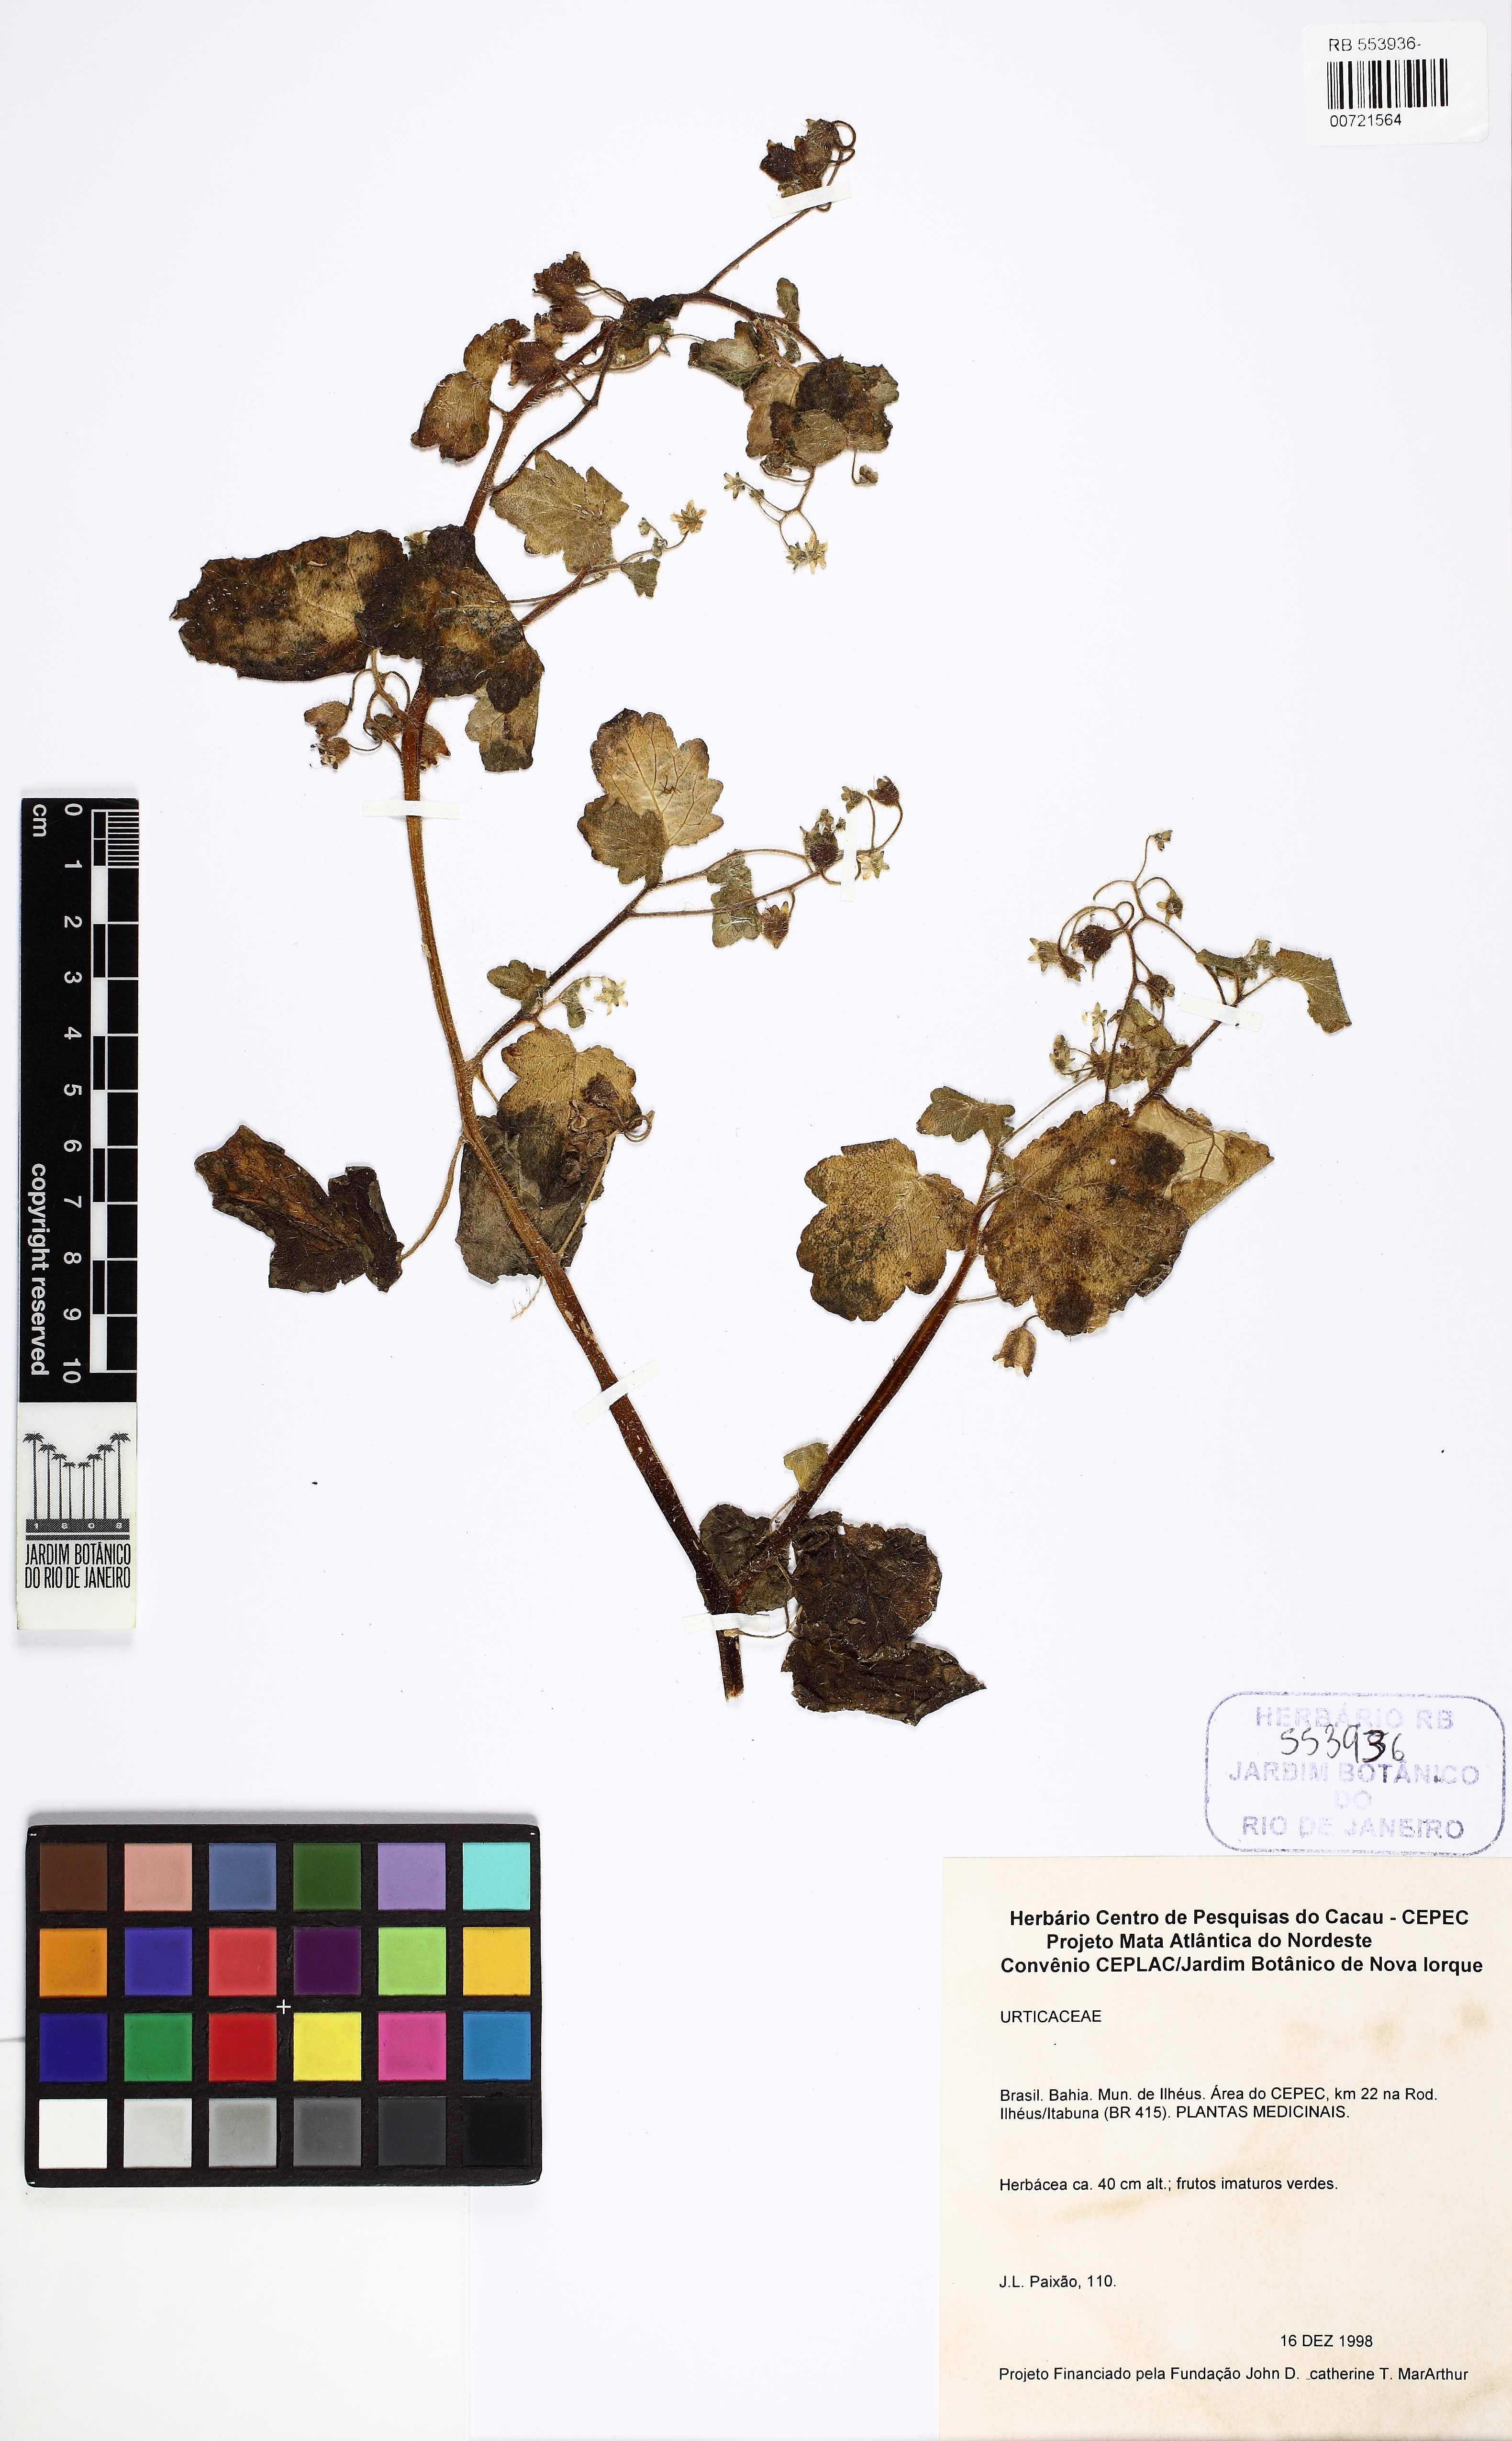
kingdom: Plantae
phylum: Tracheophyta
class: Magnoliopsida
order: Cornales
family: Loasaceae
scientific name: Loasaceae
